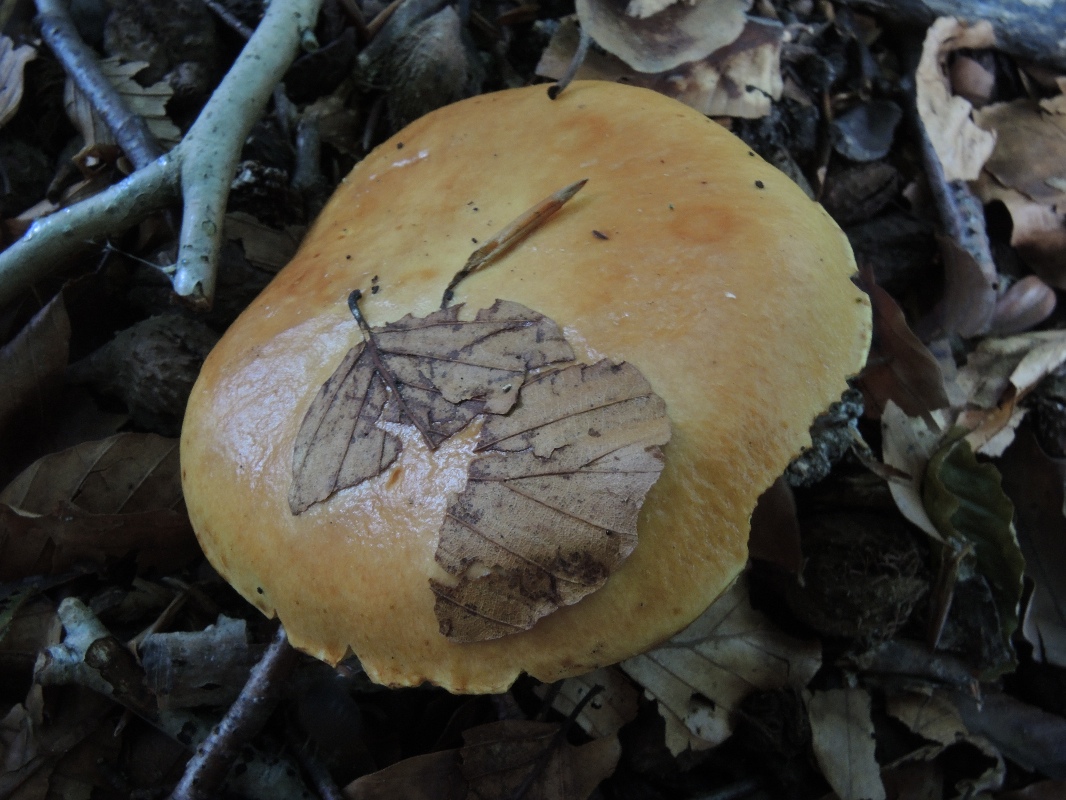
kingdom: Fungi
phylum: Basidiomycota
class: Agaricomycetes
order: Boletales
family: Suillaceae
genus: Suillus
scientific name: Suillus grevillei
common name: lærke-slimrørhat
